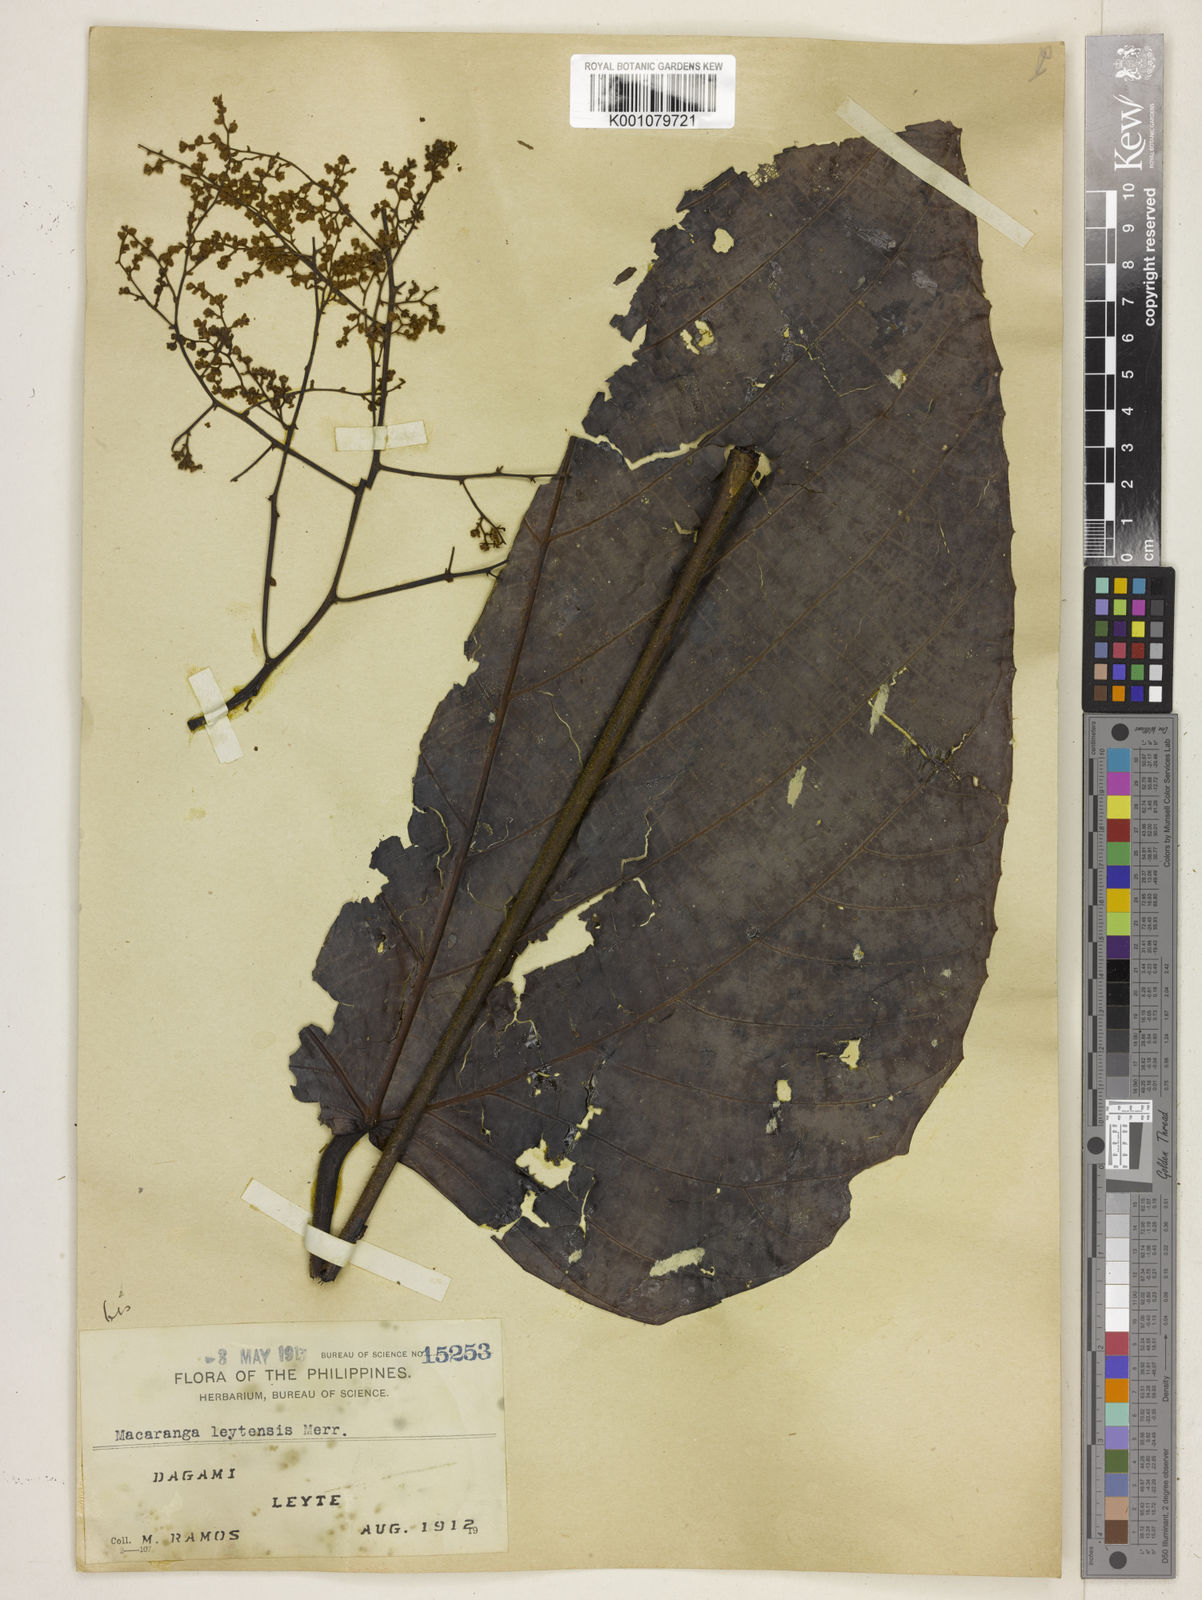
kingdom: Plantae
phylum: Tracheophyta
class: Magnoliopsida
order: Malpighiales
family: Euphorbiaceae
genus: Macaranga
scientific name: Macaranga leytensis
